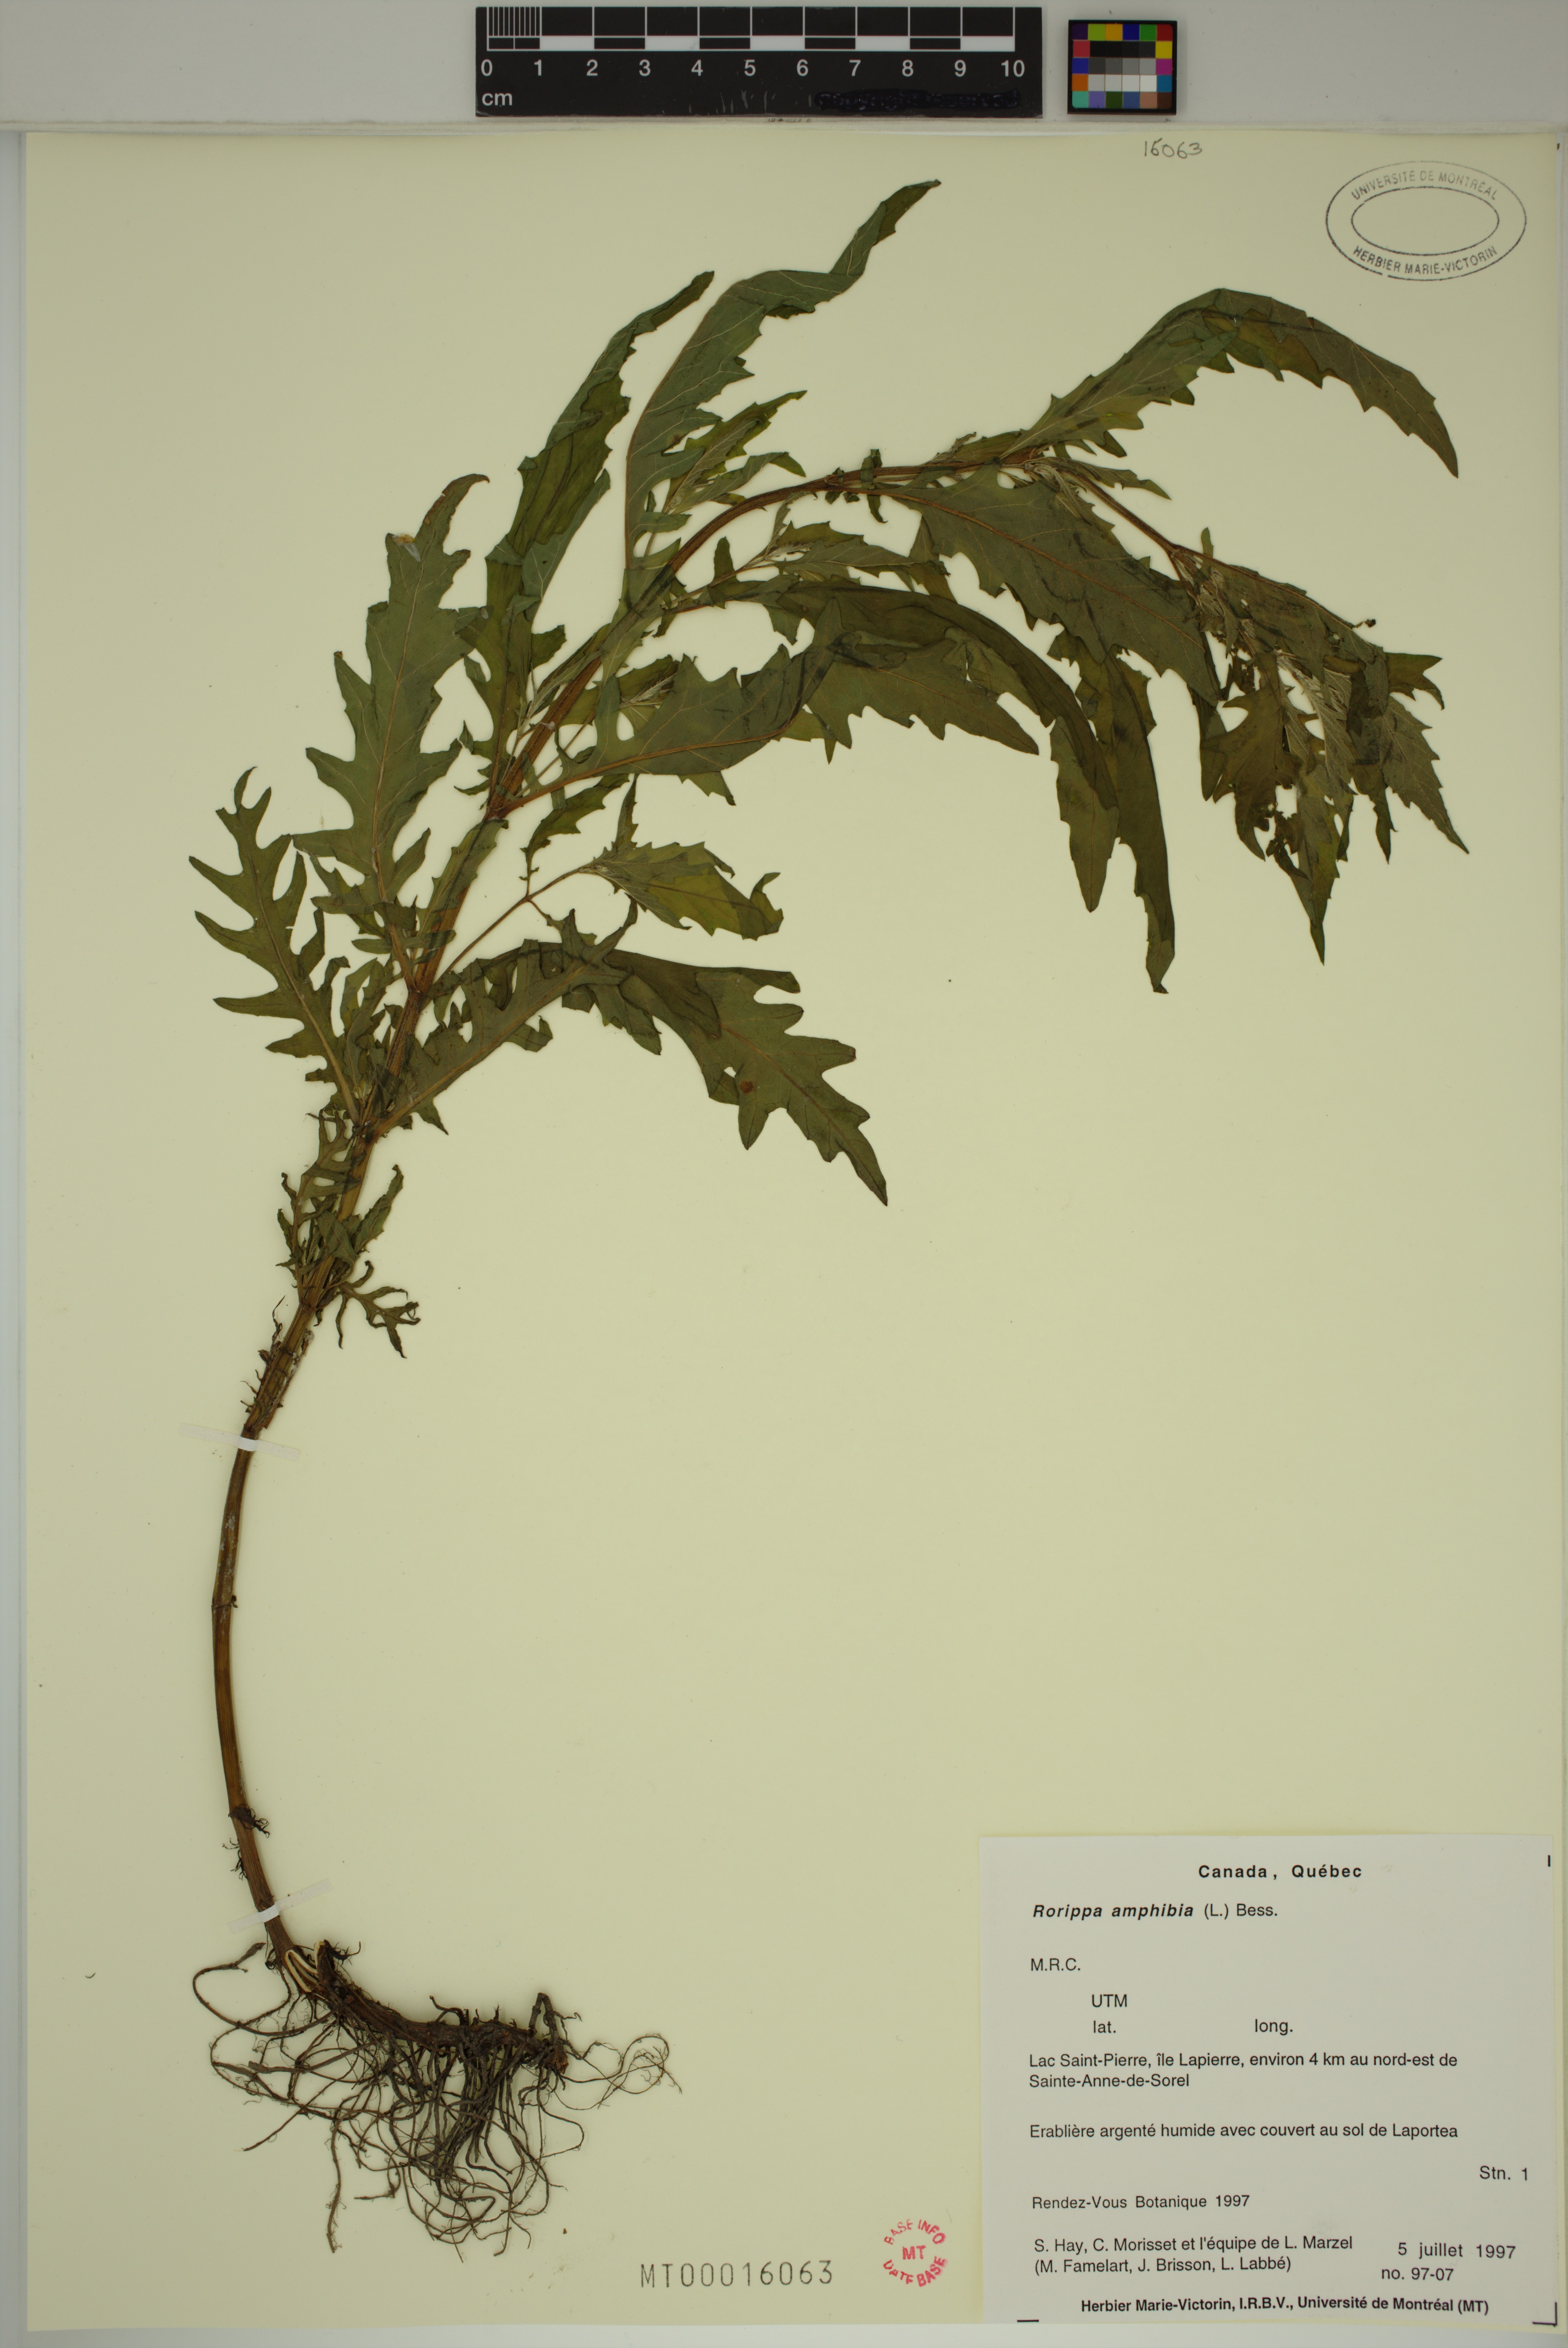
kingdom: Plantae
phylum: Tracheophyta
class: Magnoliopsida
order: Brassicales
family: Brassicaceae
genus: Rorippa
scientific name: Rorippa amphibia
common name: Great yellow-cress
